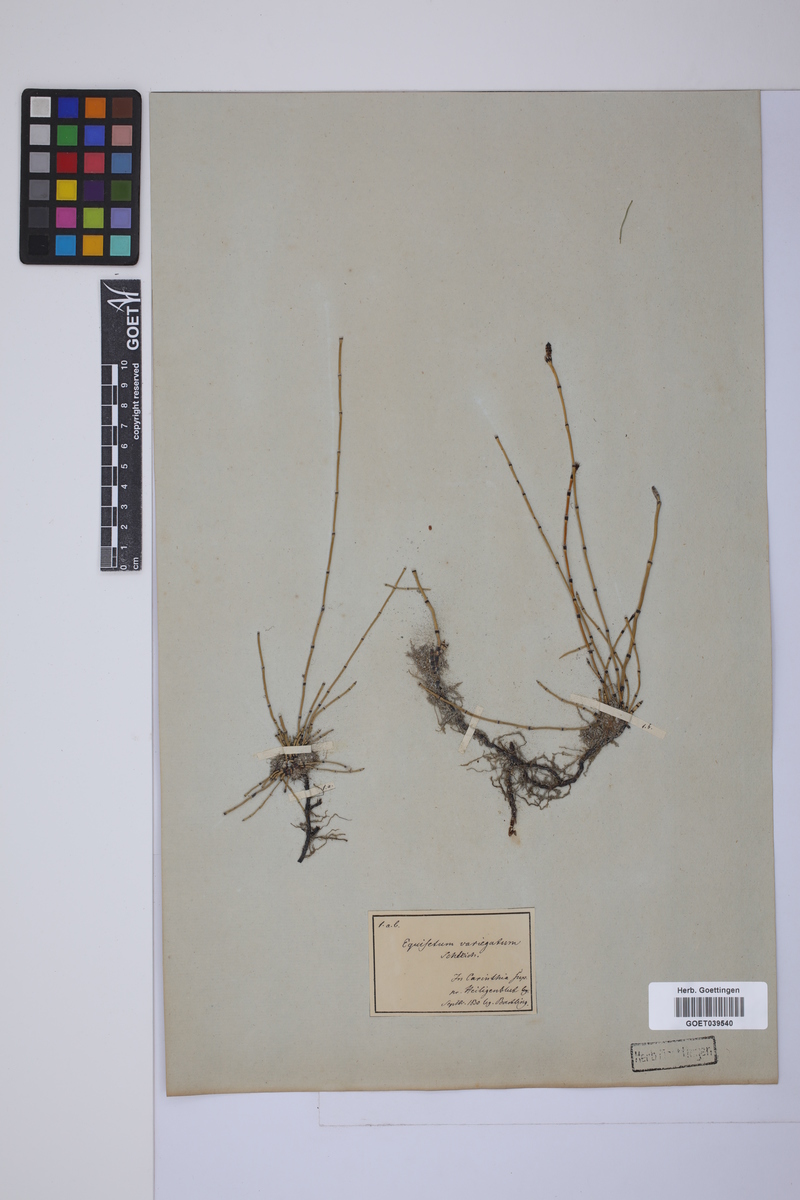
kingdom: Plantae
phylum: Tracheophyta
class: Polypodiopsida
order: Equisetales
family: Equisetaceae
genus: Equisetum
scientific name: Equisetum variegatum
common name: Variegated horsetail
